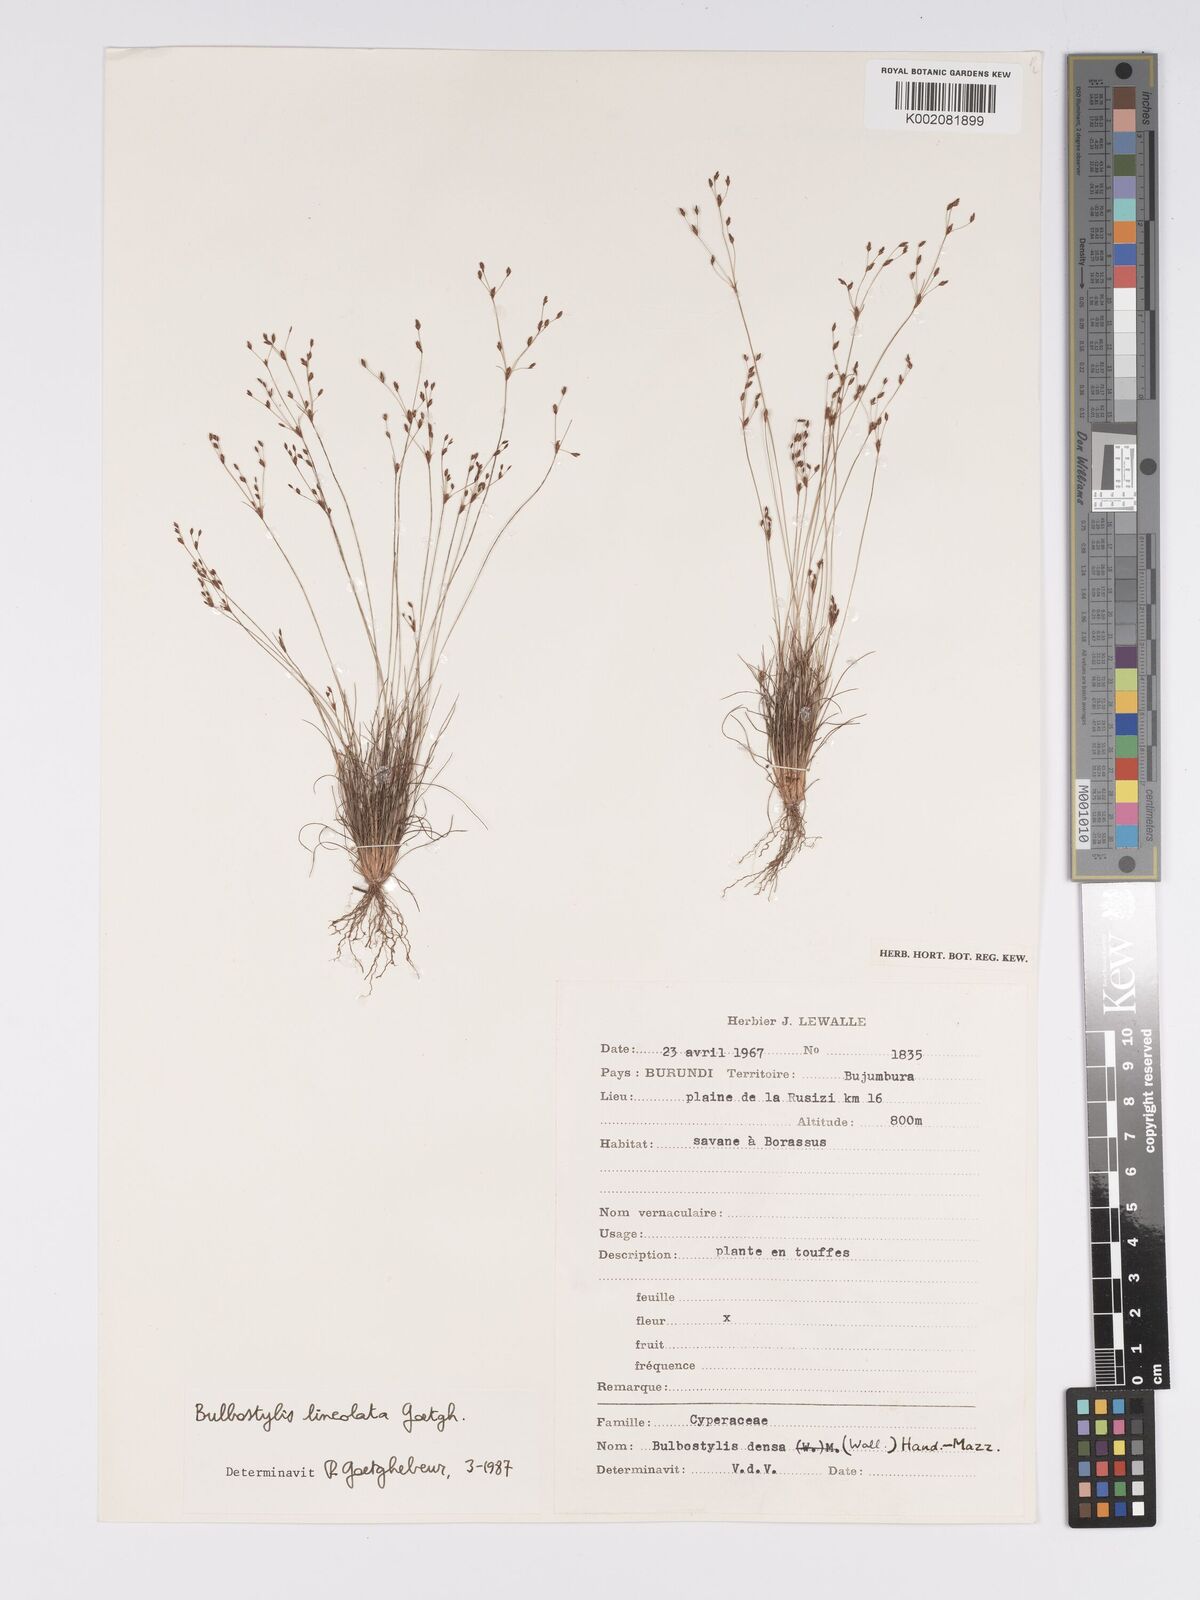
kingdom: Plantae
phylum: Tracheophyta
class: Liliopsida
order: Poales
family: Cyperaceae
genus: Bulbostylis
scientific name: Bulbostylis scrobiculata
